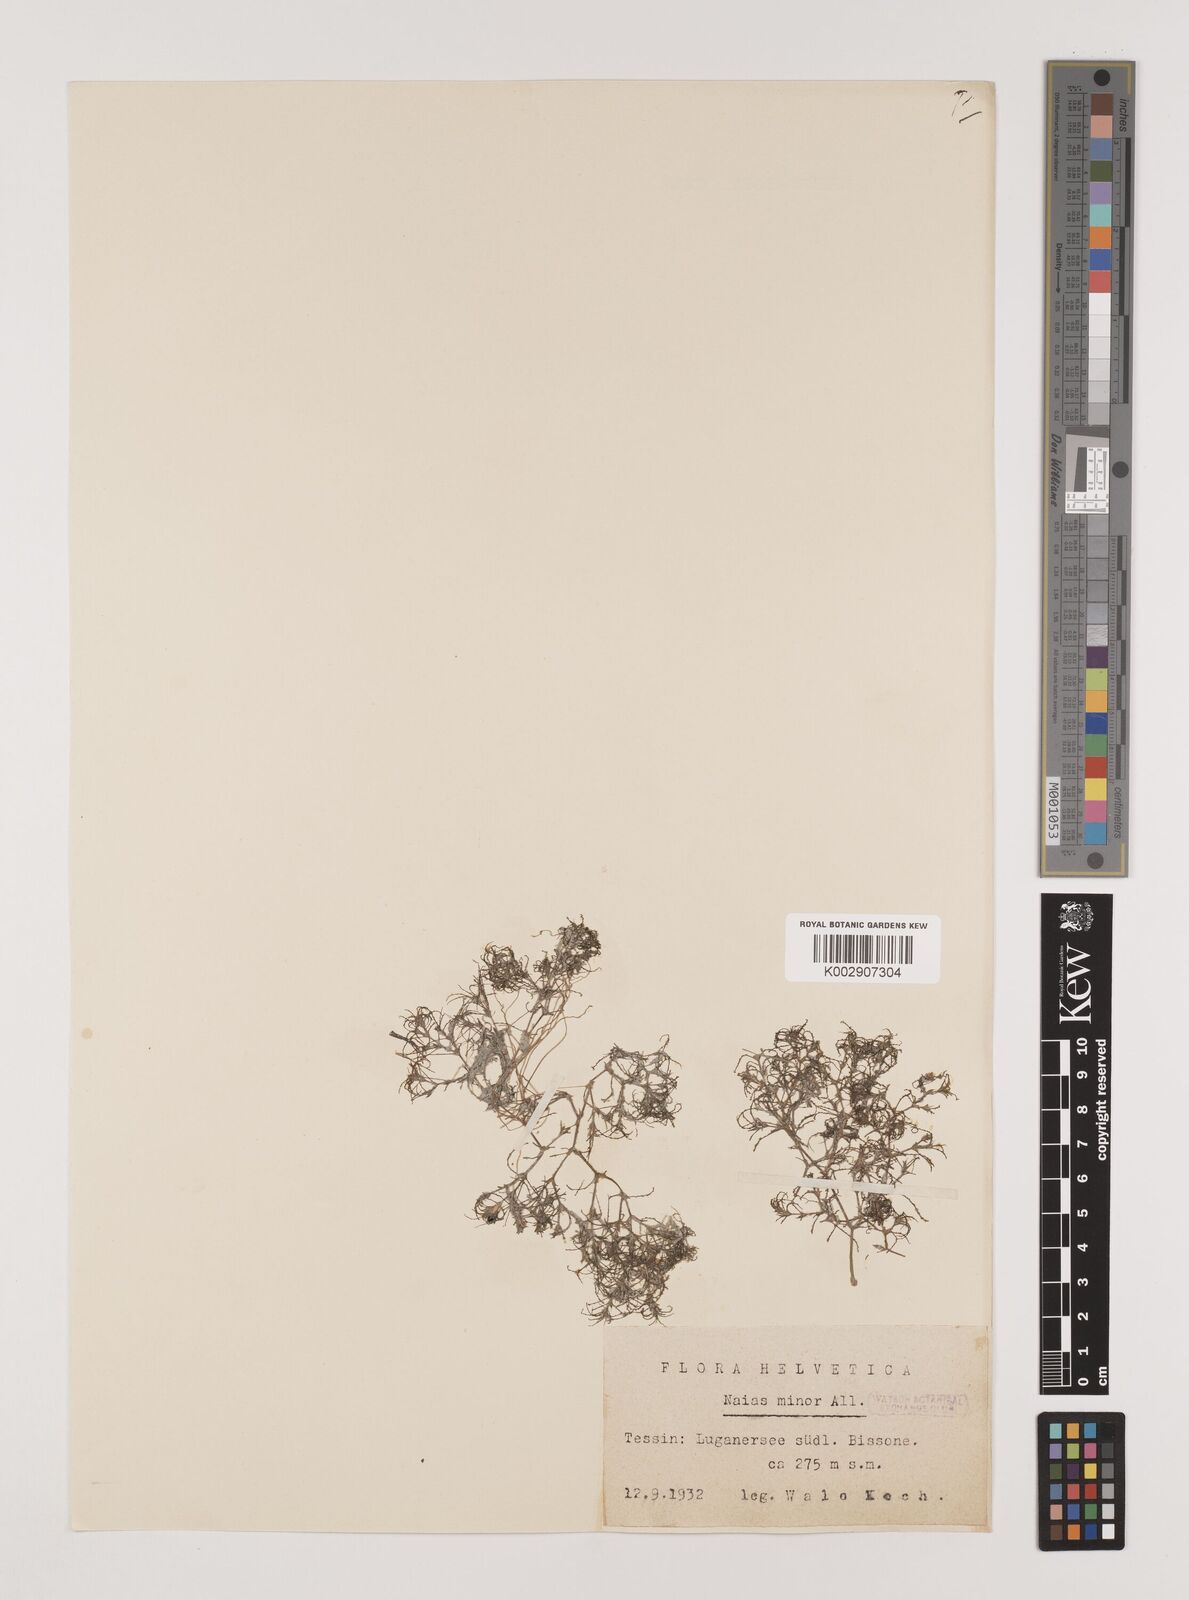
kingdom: Plantae
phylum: Tracheophyta
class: Liliopsida
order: Alismatales
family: Hydrocharitaceae
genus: Najas
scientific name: Najas minor
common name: Brittle naiad
